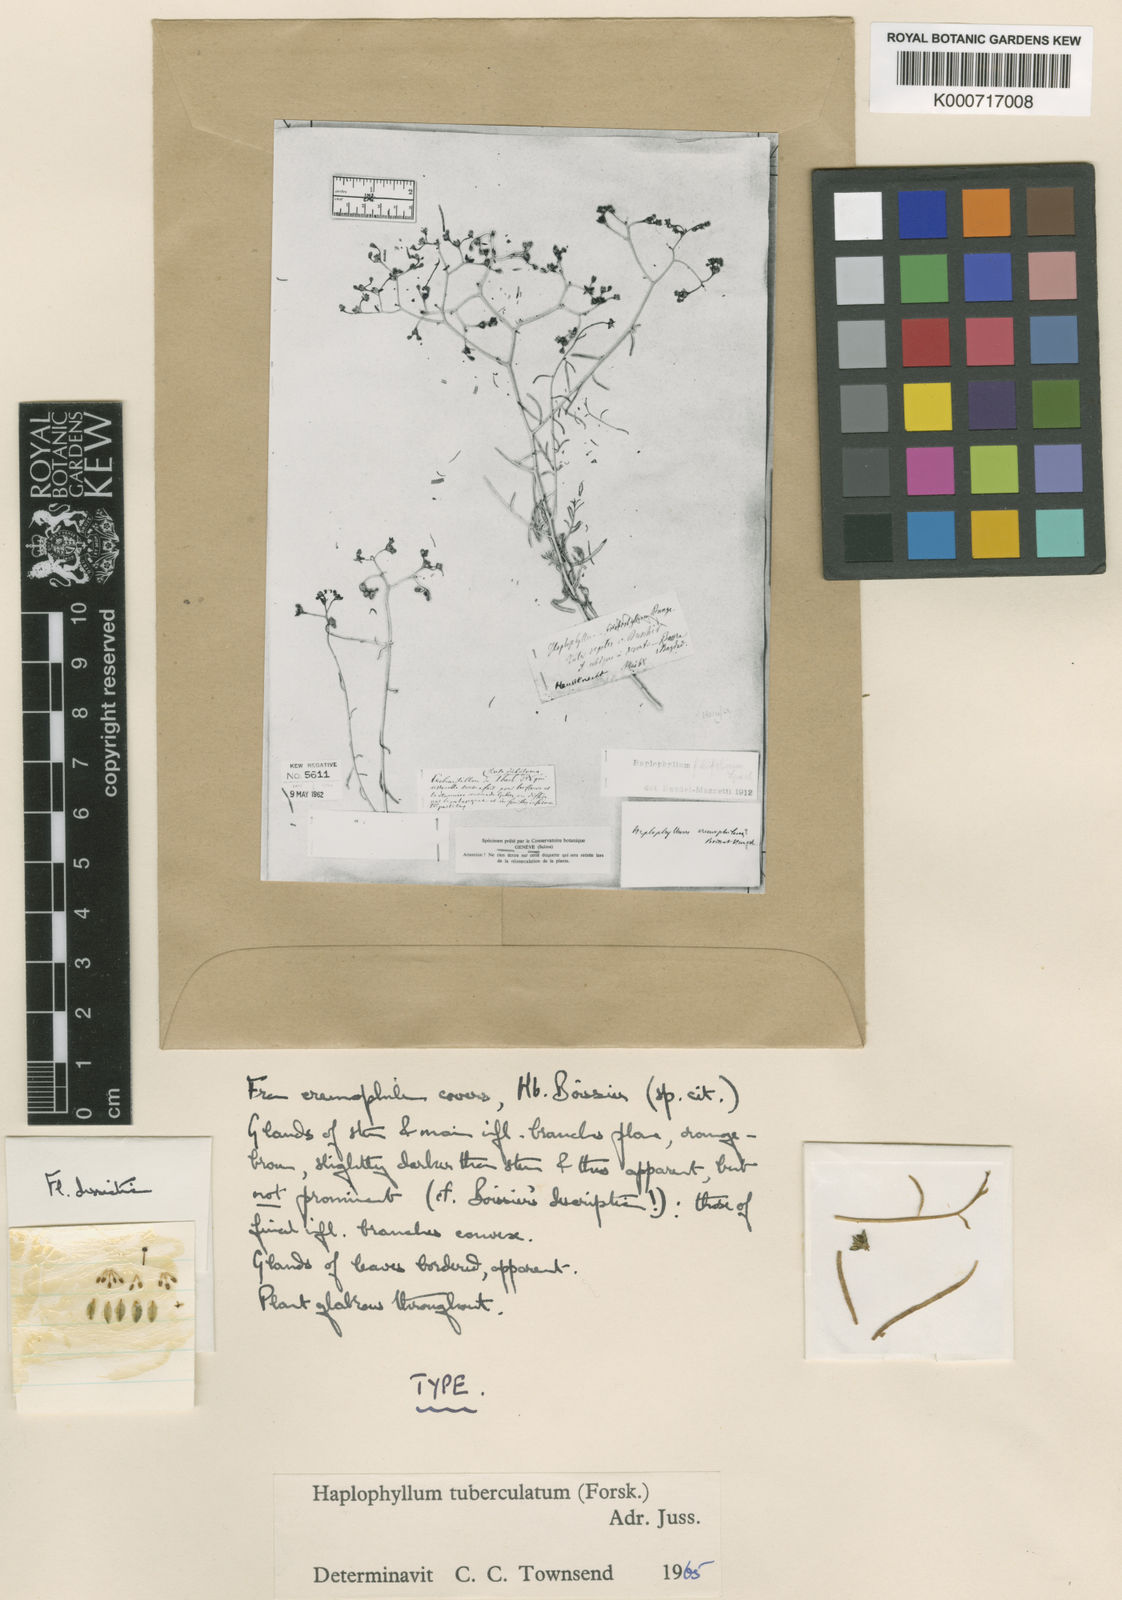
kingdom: Plantae
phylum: Tracheophyta
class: Magnoliopsida
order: Sapindales
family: Rutaceae
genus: Haplophyllum
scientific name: Haplophyllum tuberculatum
